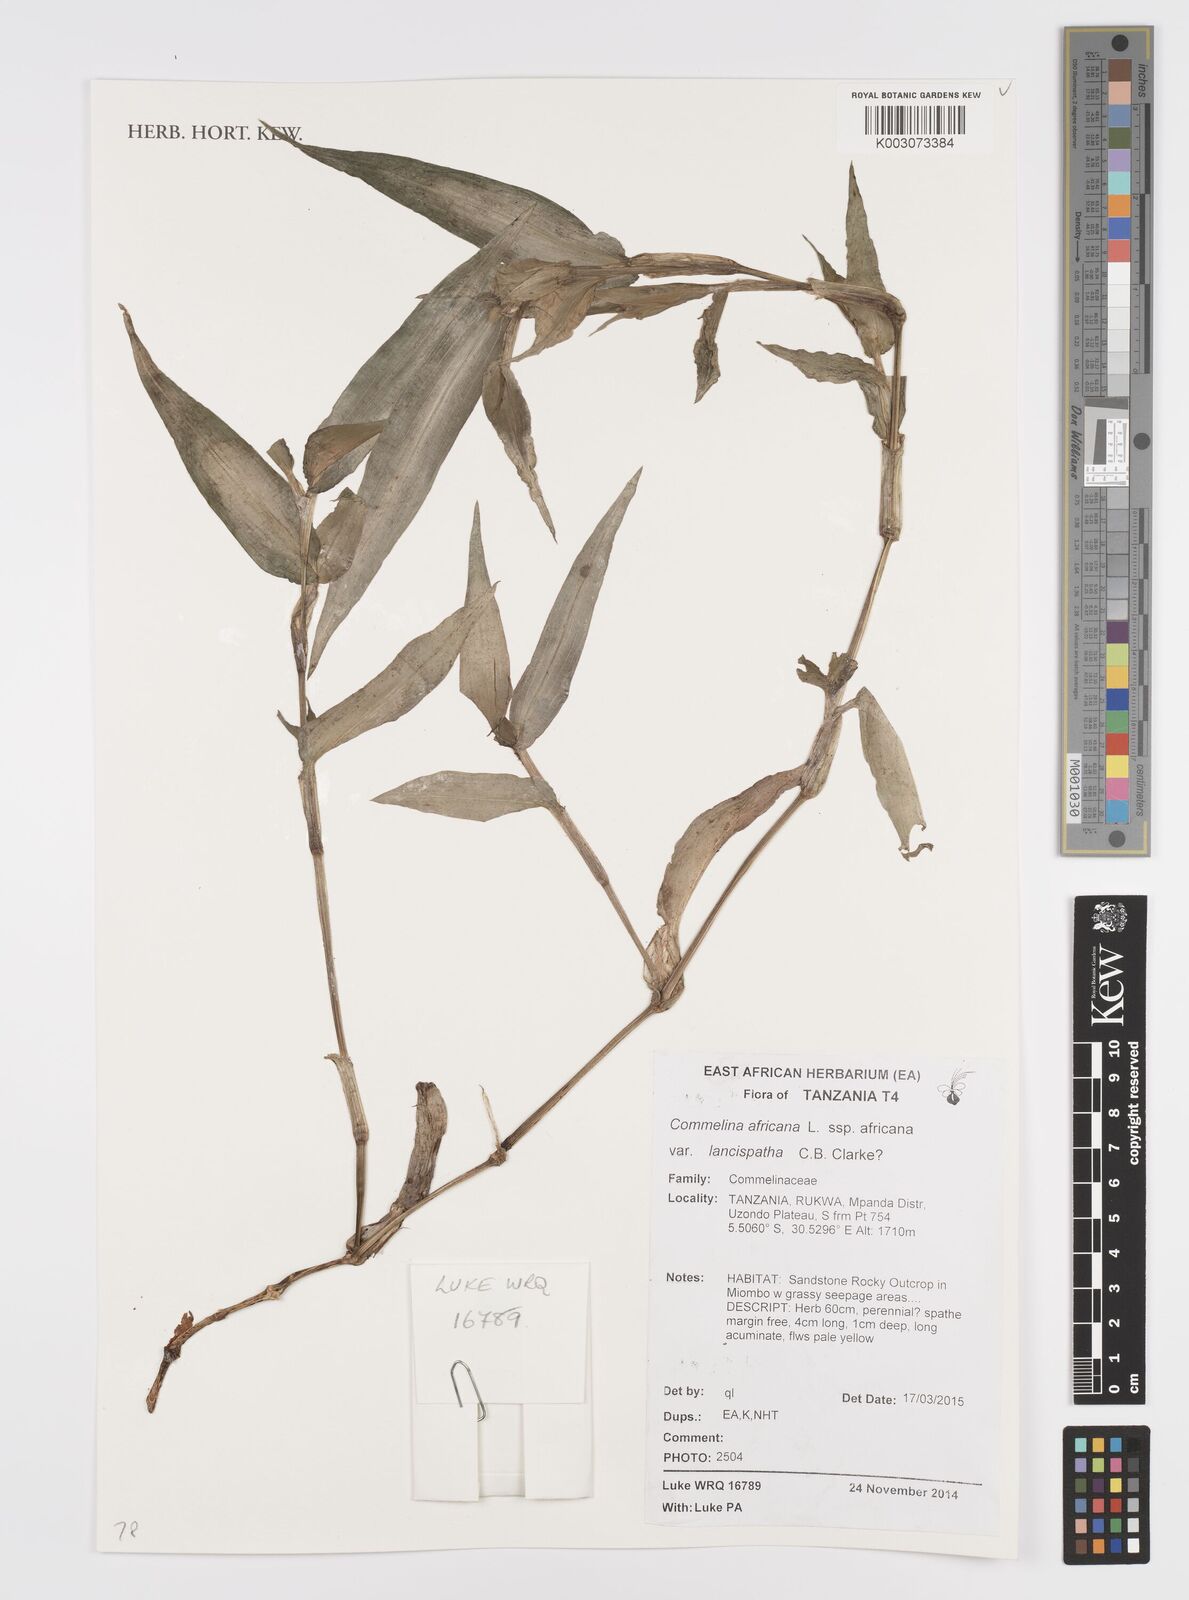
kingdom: Plantae
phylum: Tracheophyta
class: Liliopsida
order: Commelinales
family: Commelinaceae
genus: Commelina
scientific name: Commelina africana
